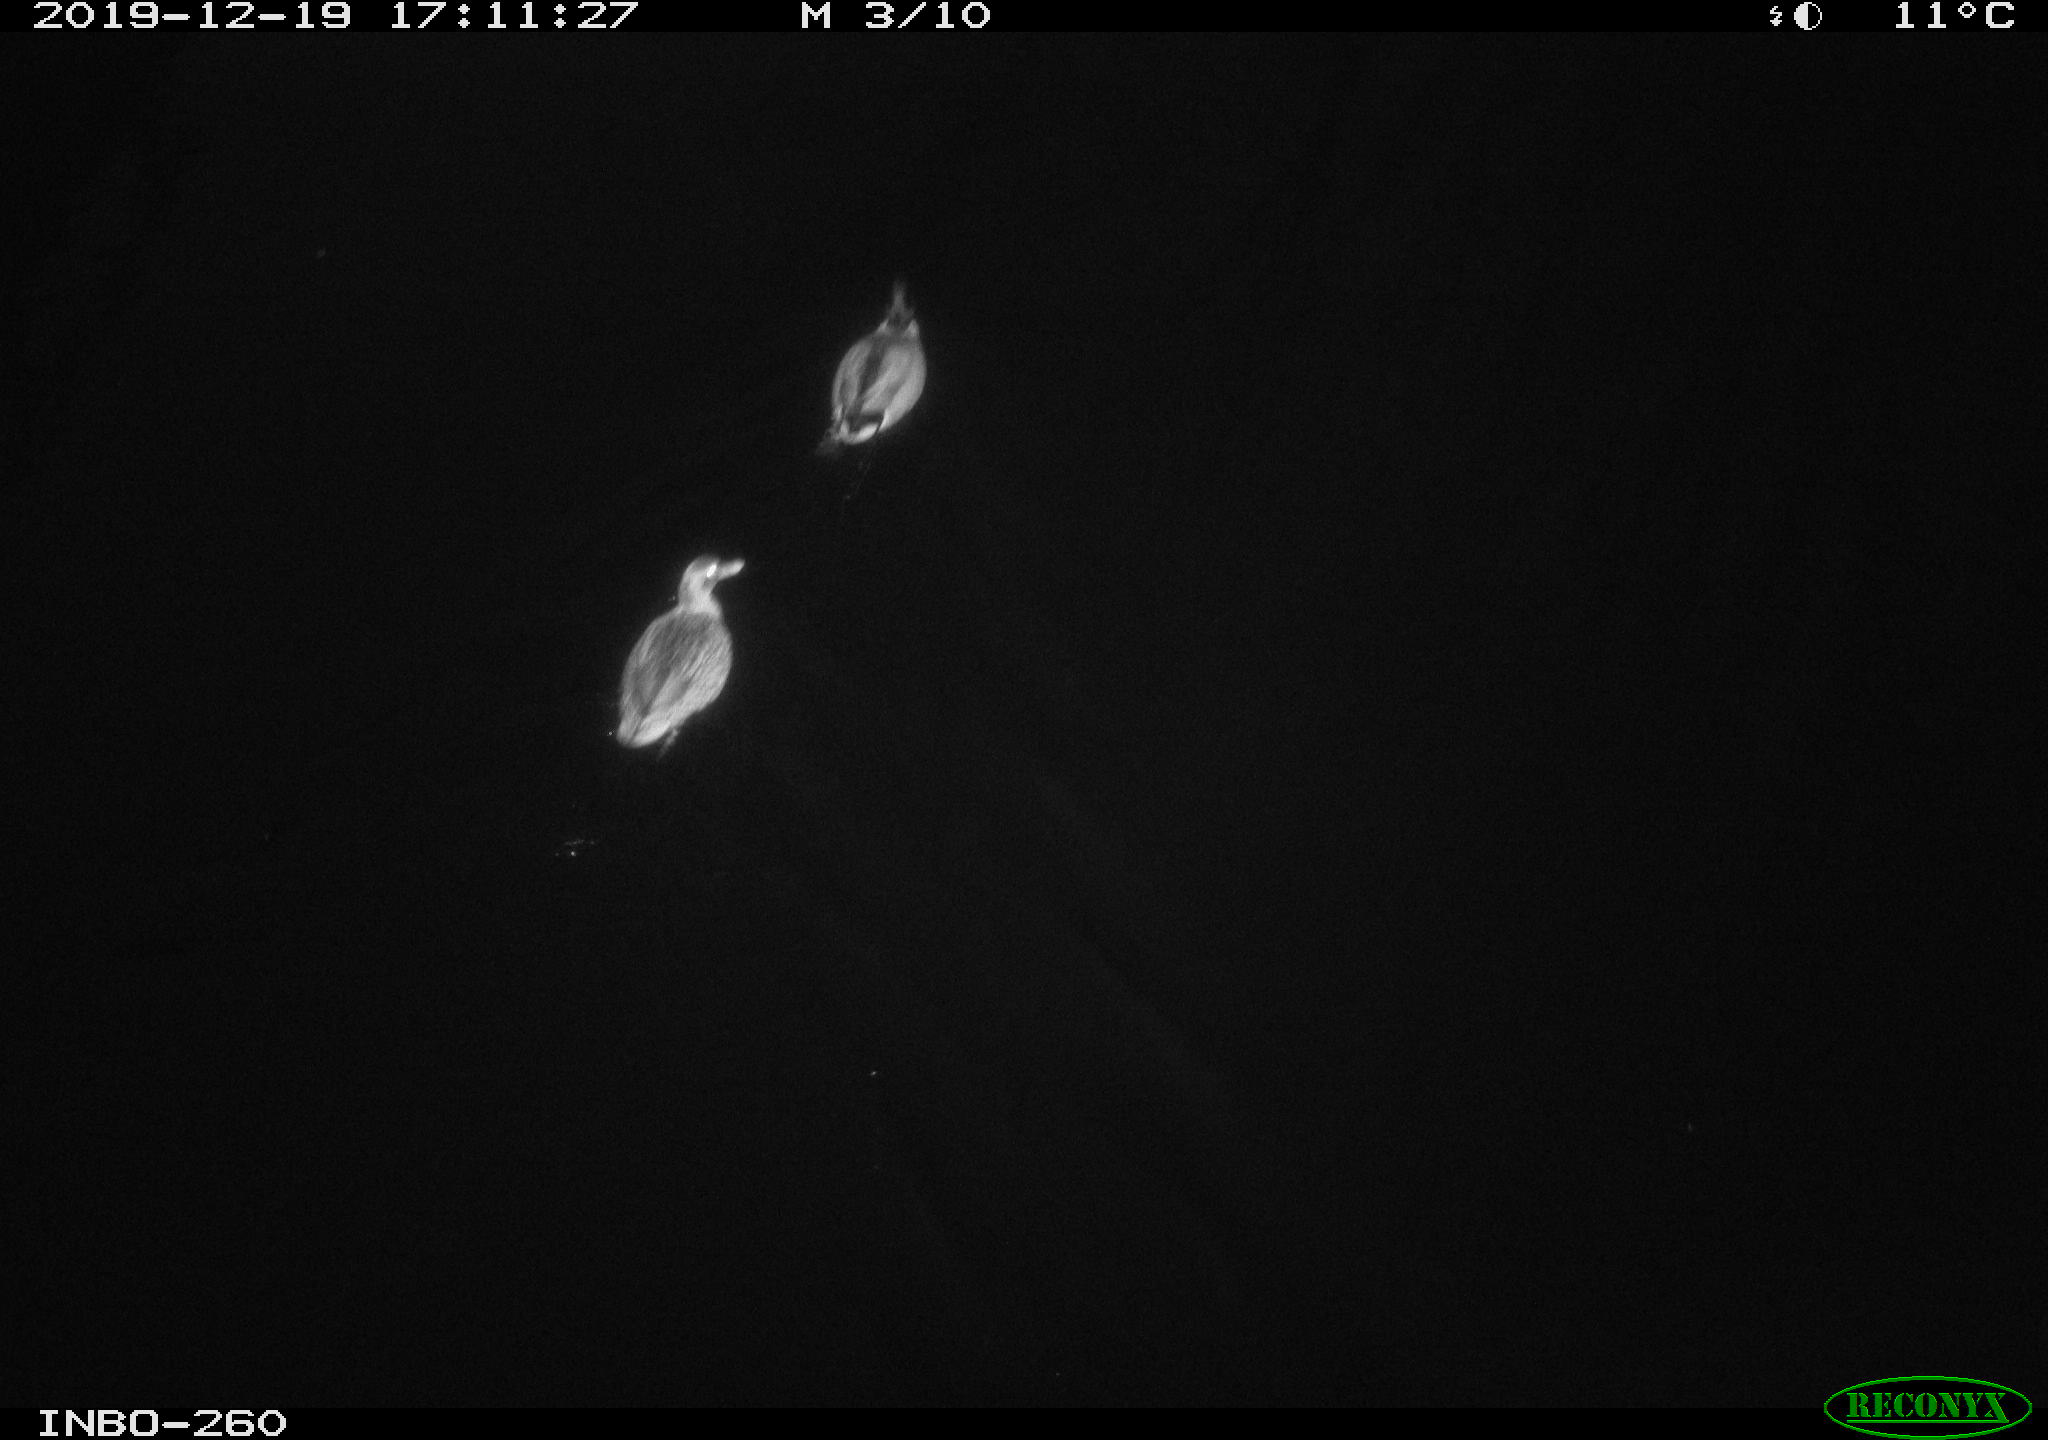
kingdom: Animalia
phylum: Chordata
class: Aves
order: Anseriformes
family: Anatidae
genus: Anas
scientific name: Anas platyrhynchos
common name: Mallard
